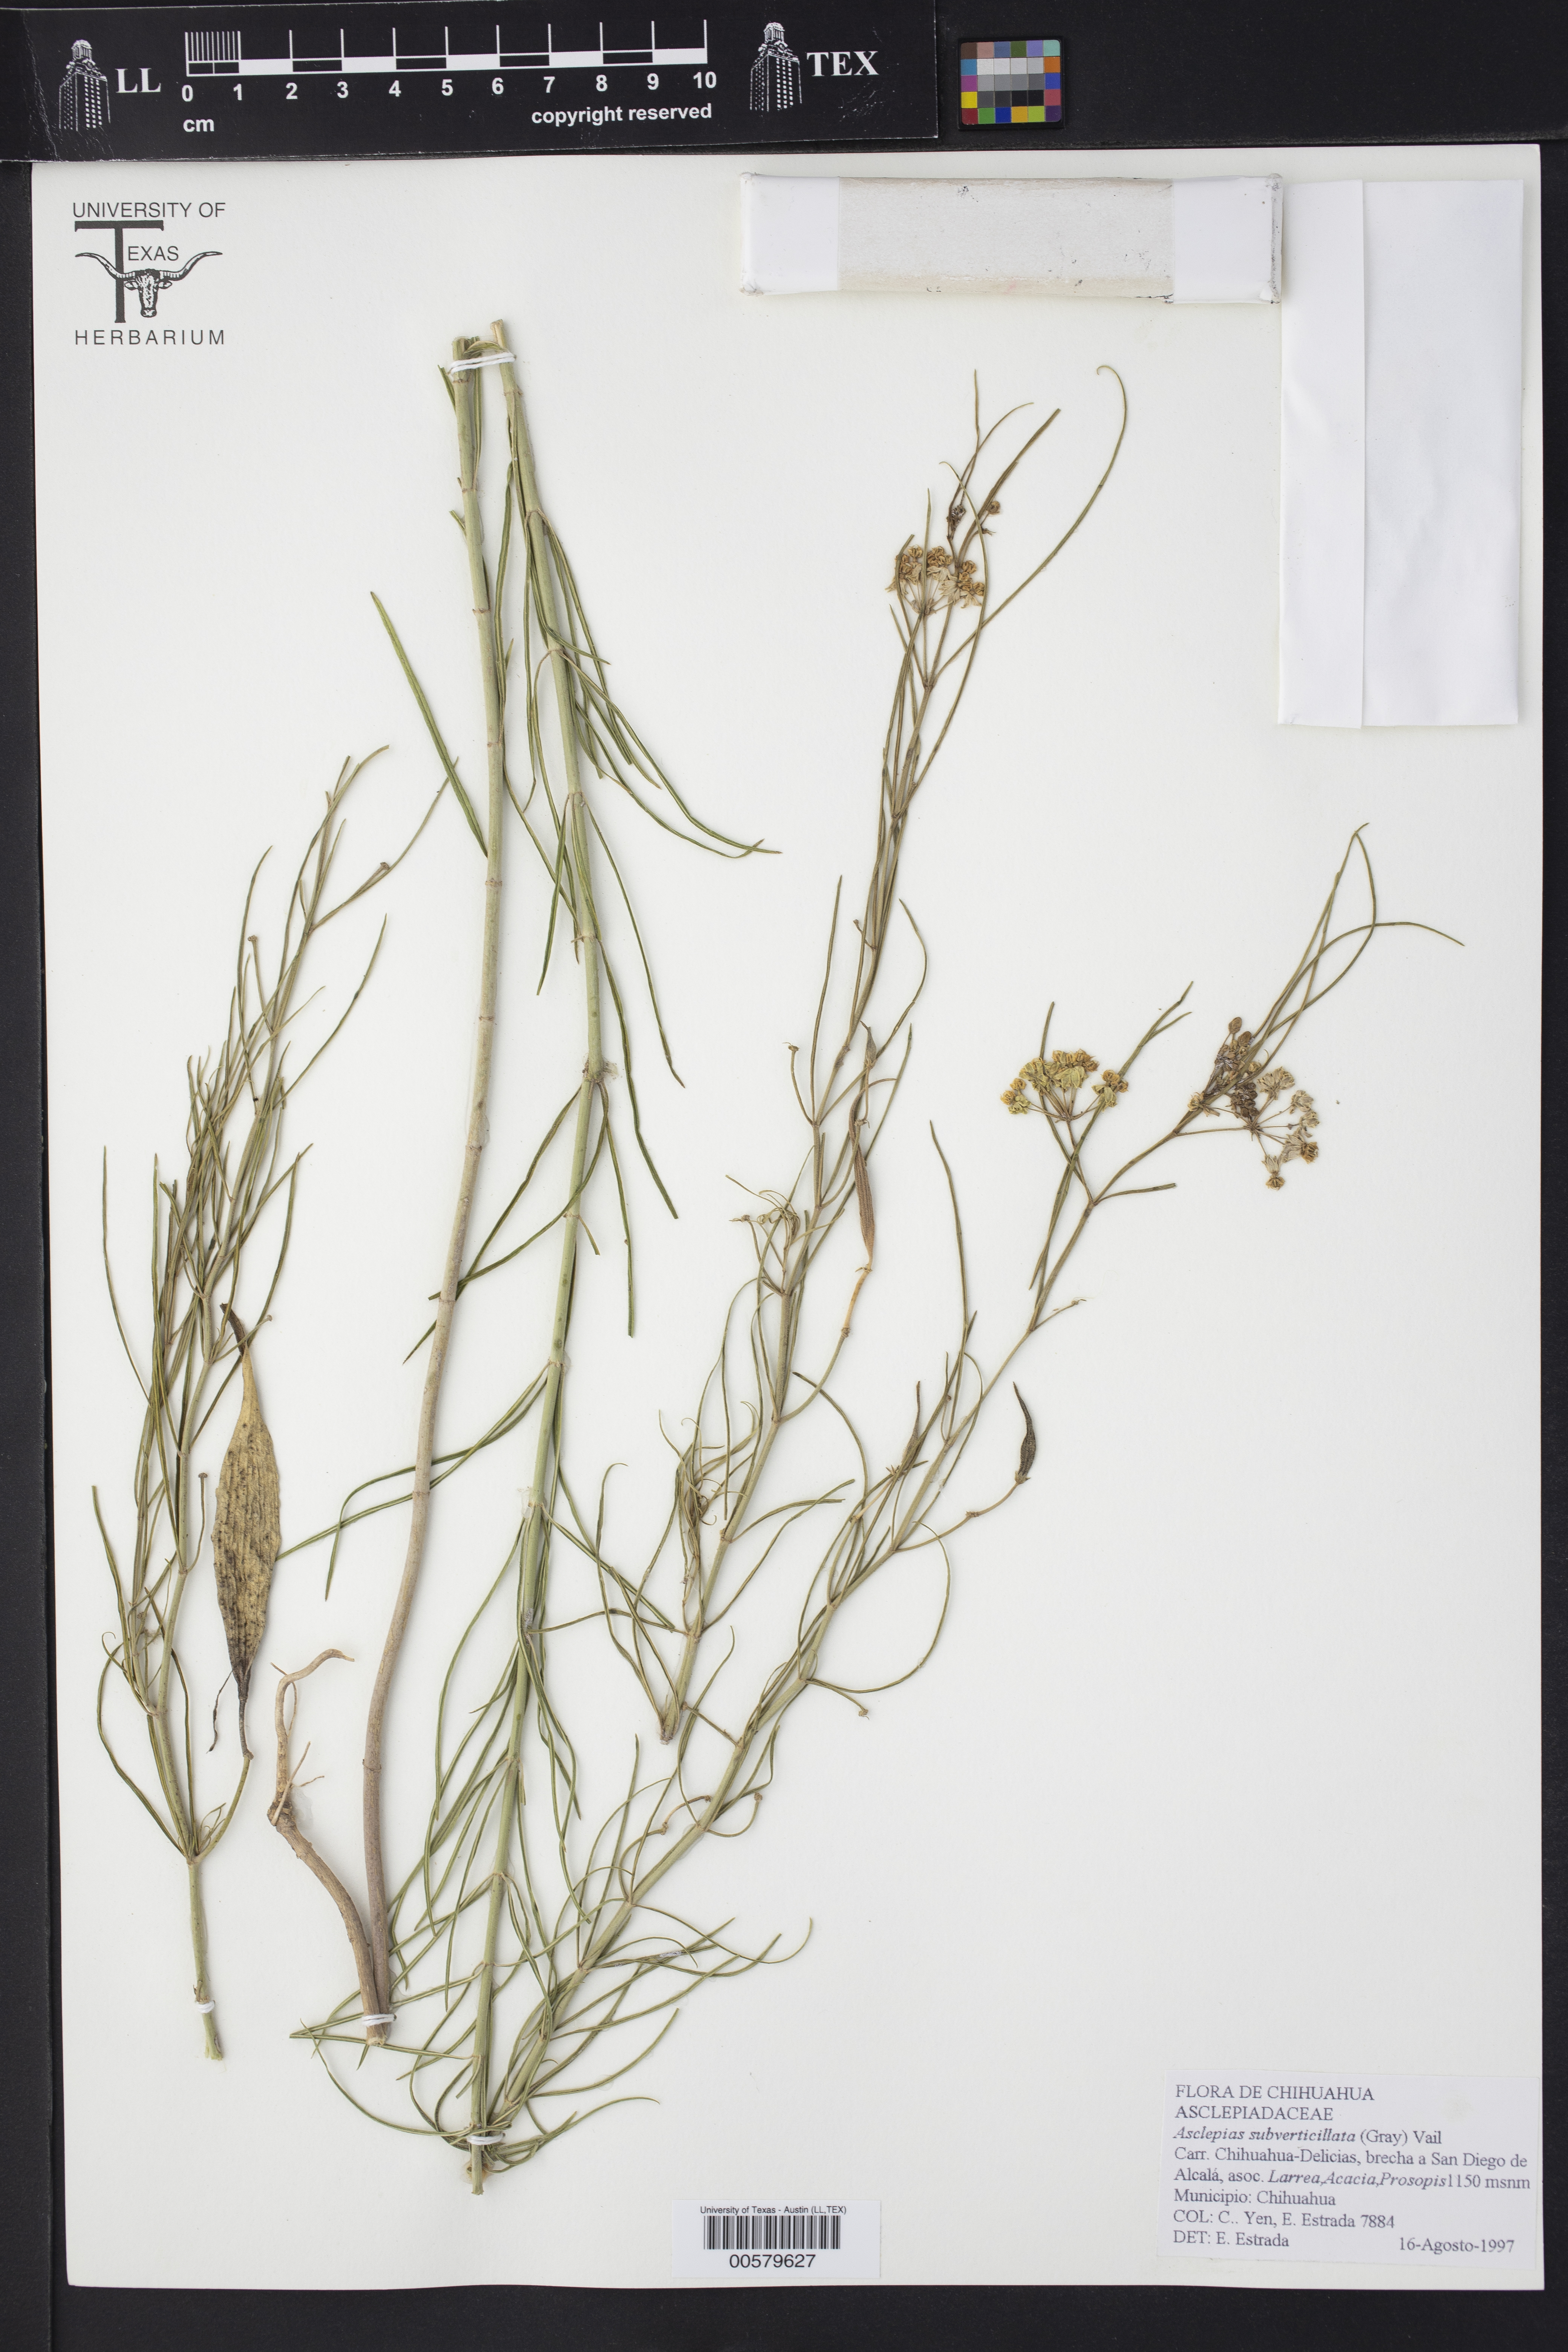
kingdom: Plantae
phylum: Tracheophyta
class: Magnoliopsida
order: Gentianales
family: Apocynaceae
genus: Asclepias
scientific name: Asclepias subverticillata
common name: Horsetail milkweed
